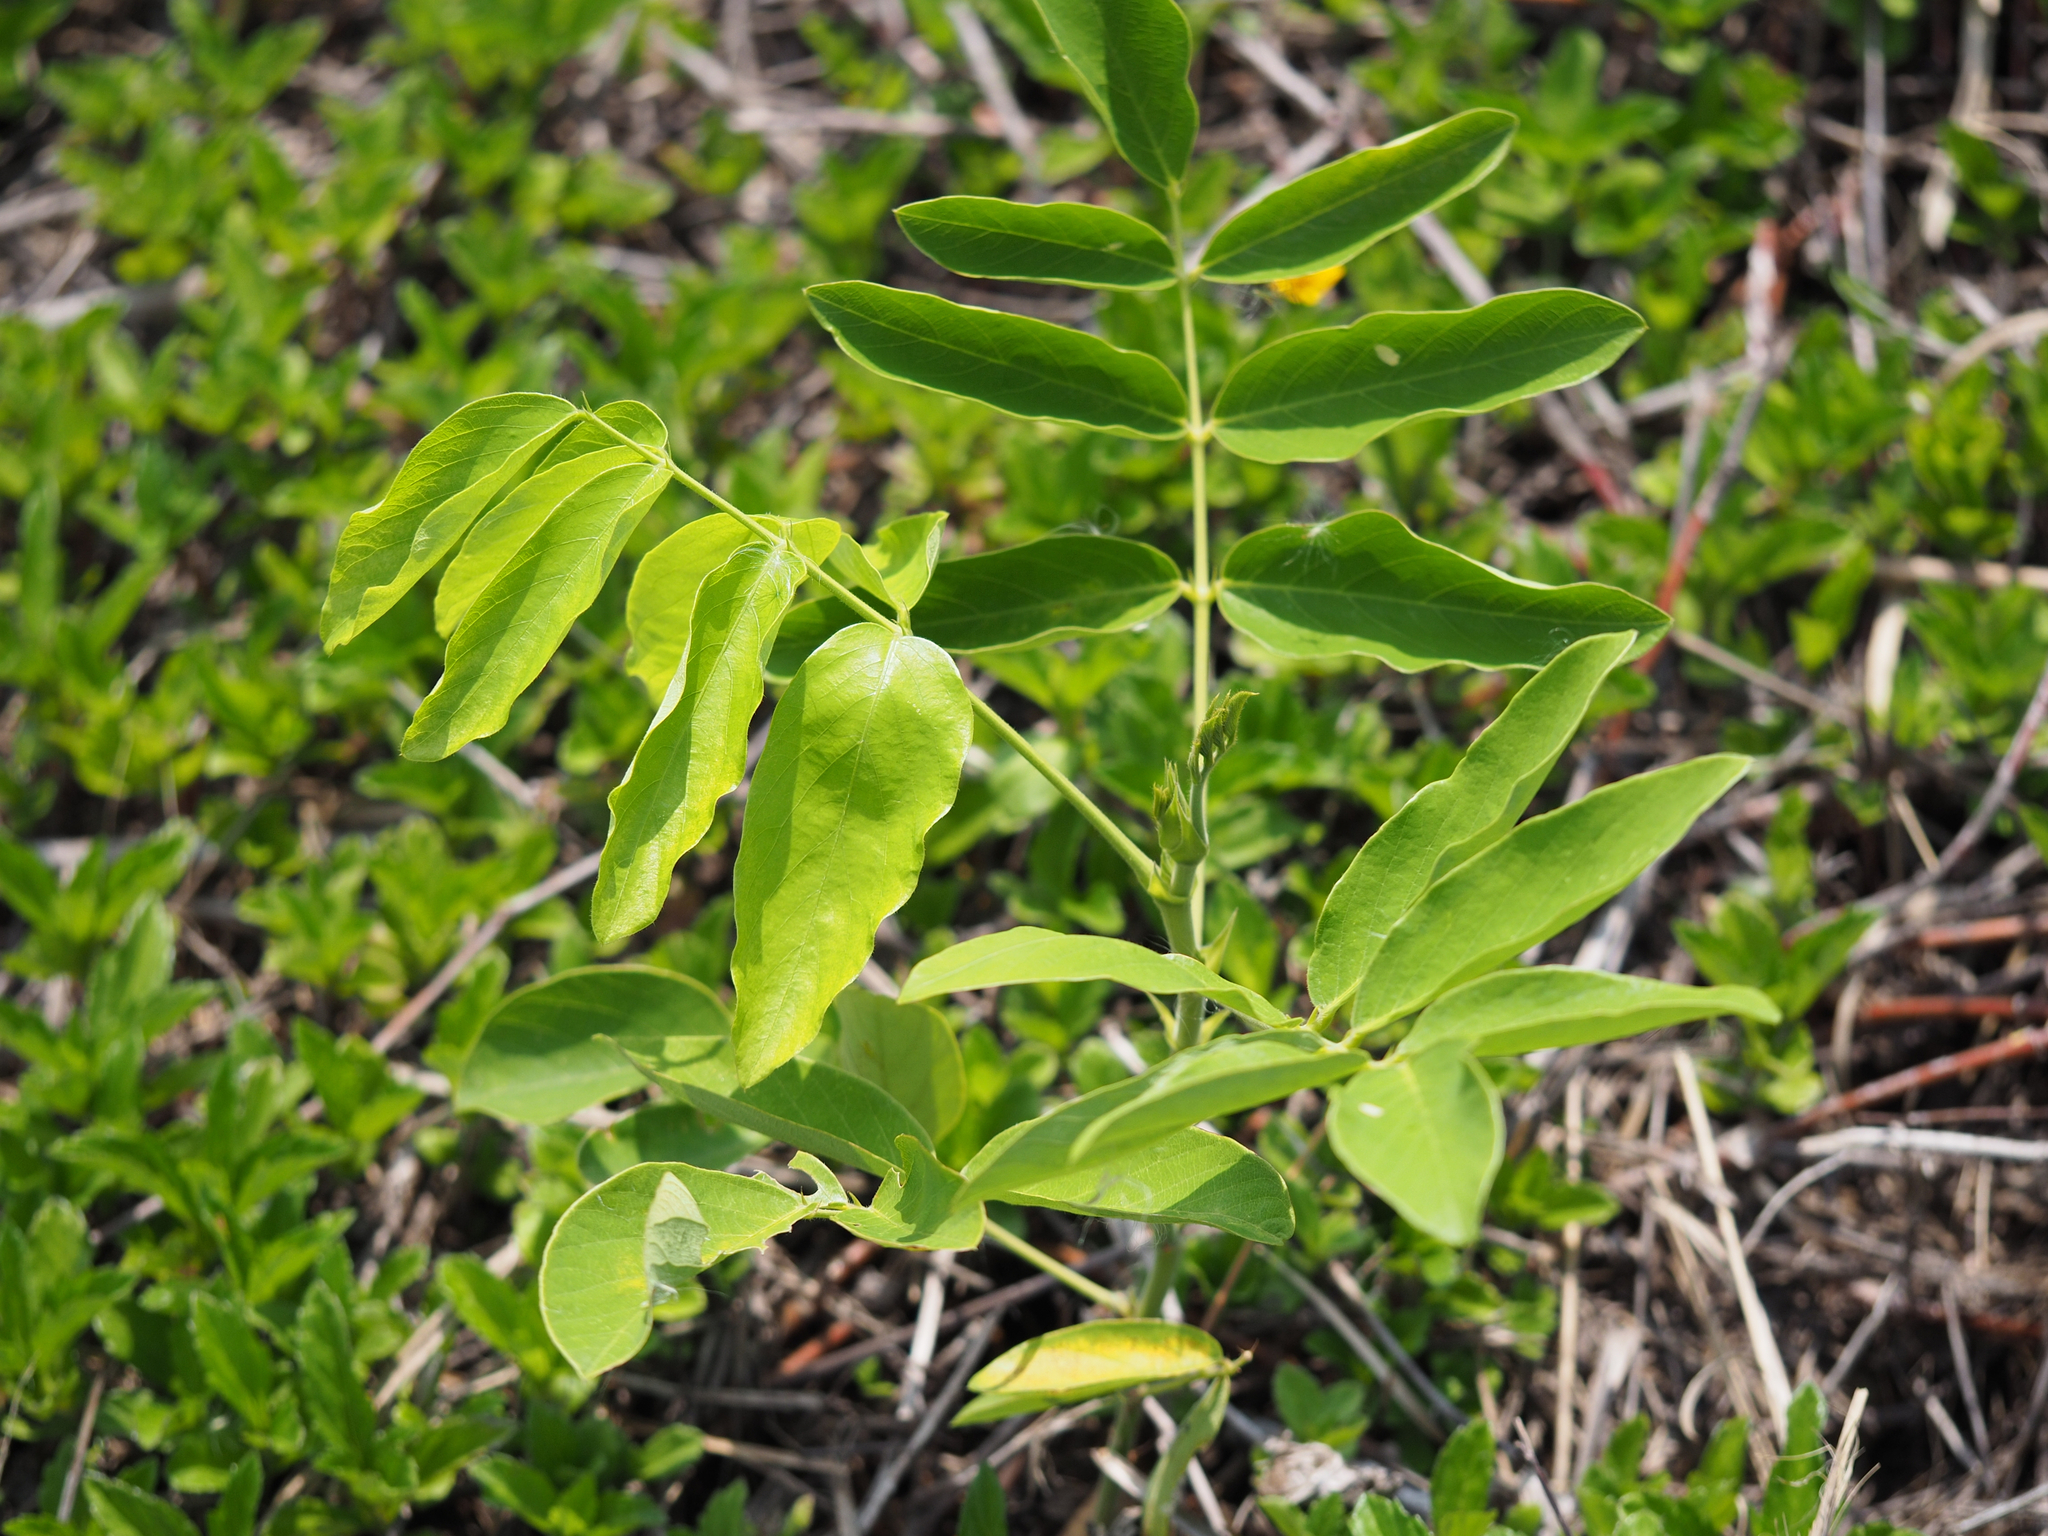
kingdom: Plantae
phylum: Tracheophyta
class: Magnoliopsida
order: Fabales
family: Fabaceae
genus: Uraria
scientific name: Uraria crinita
